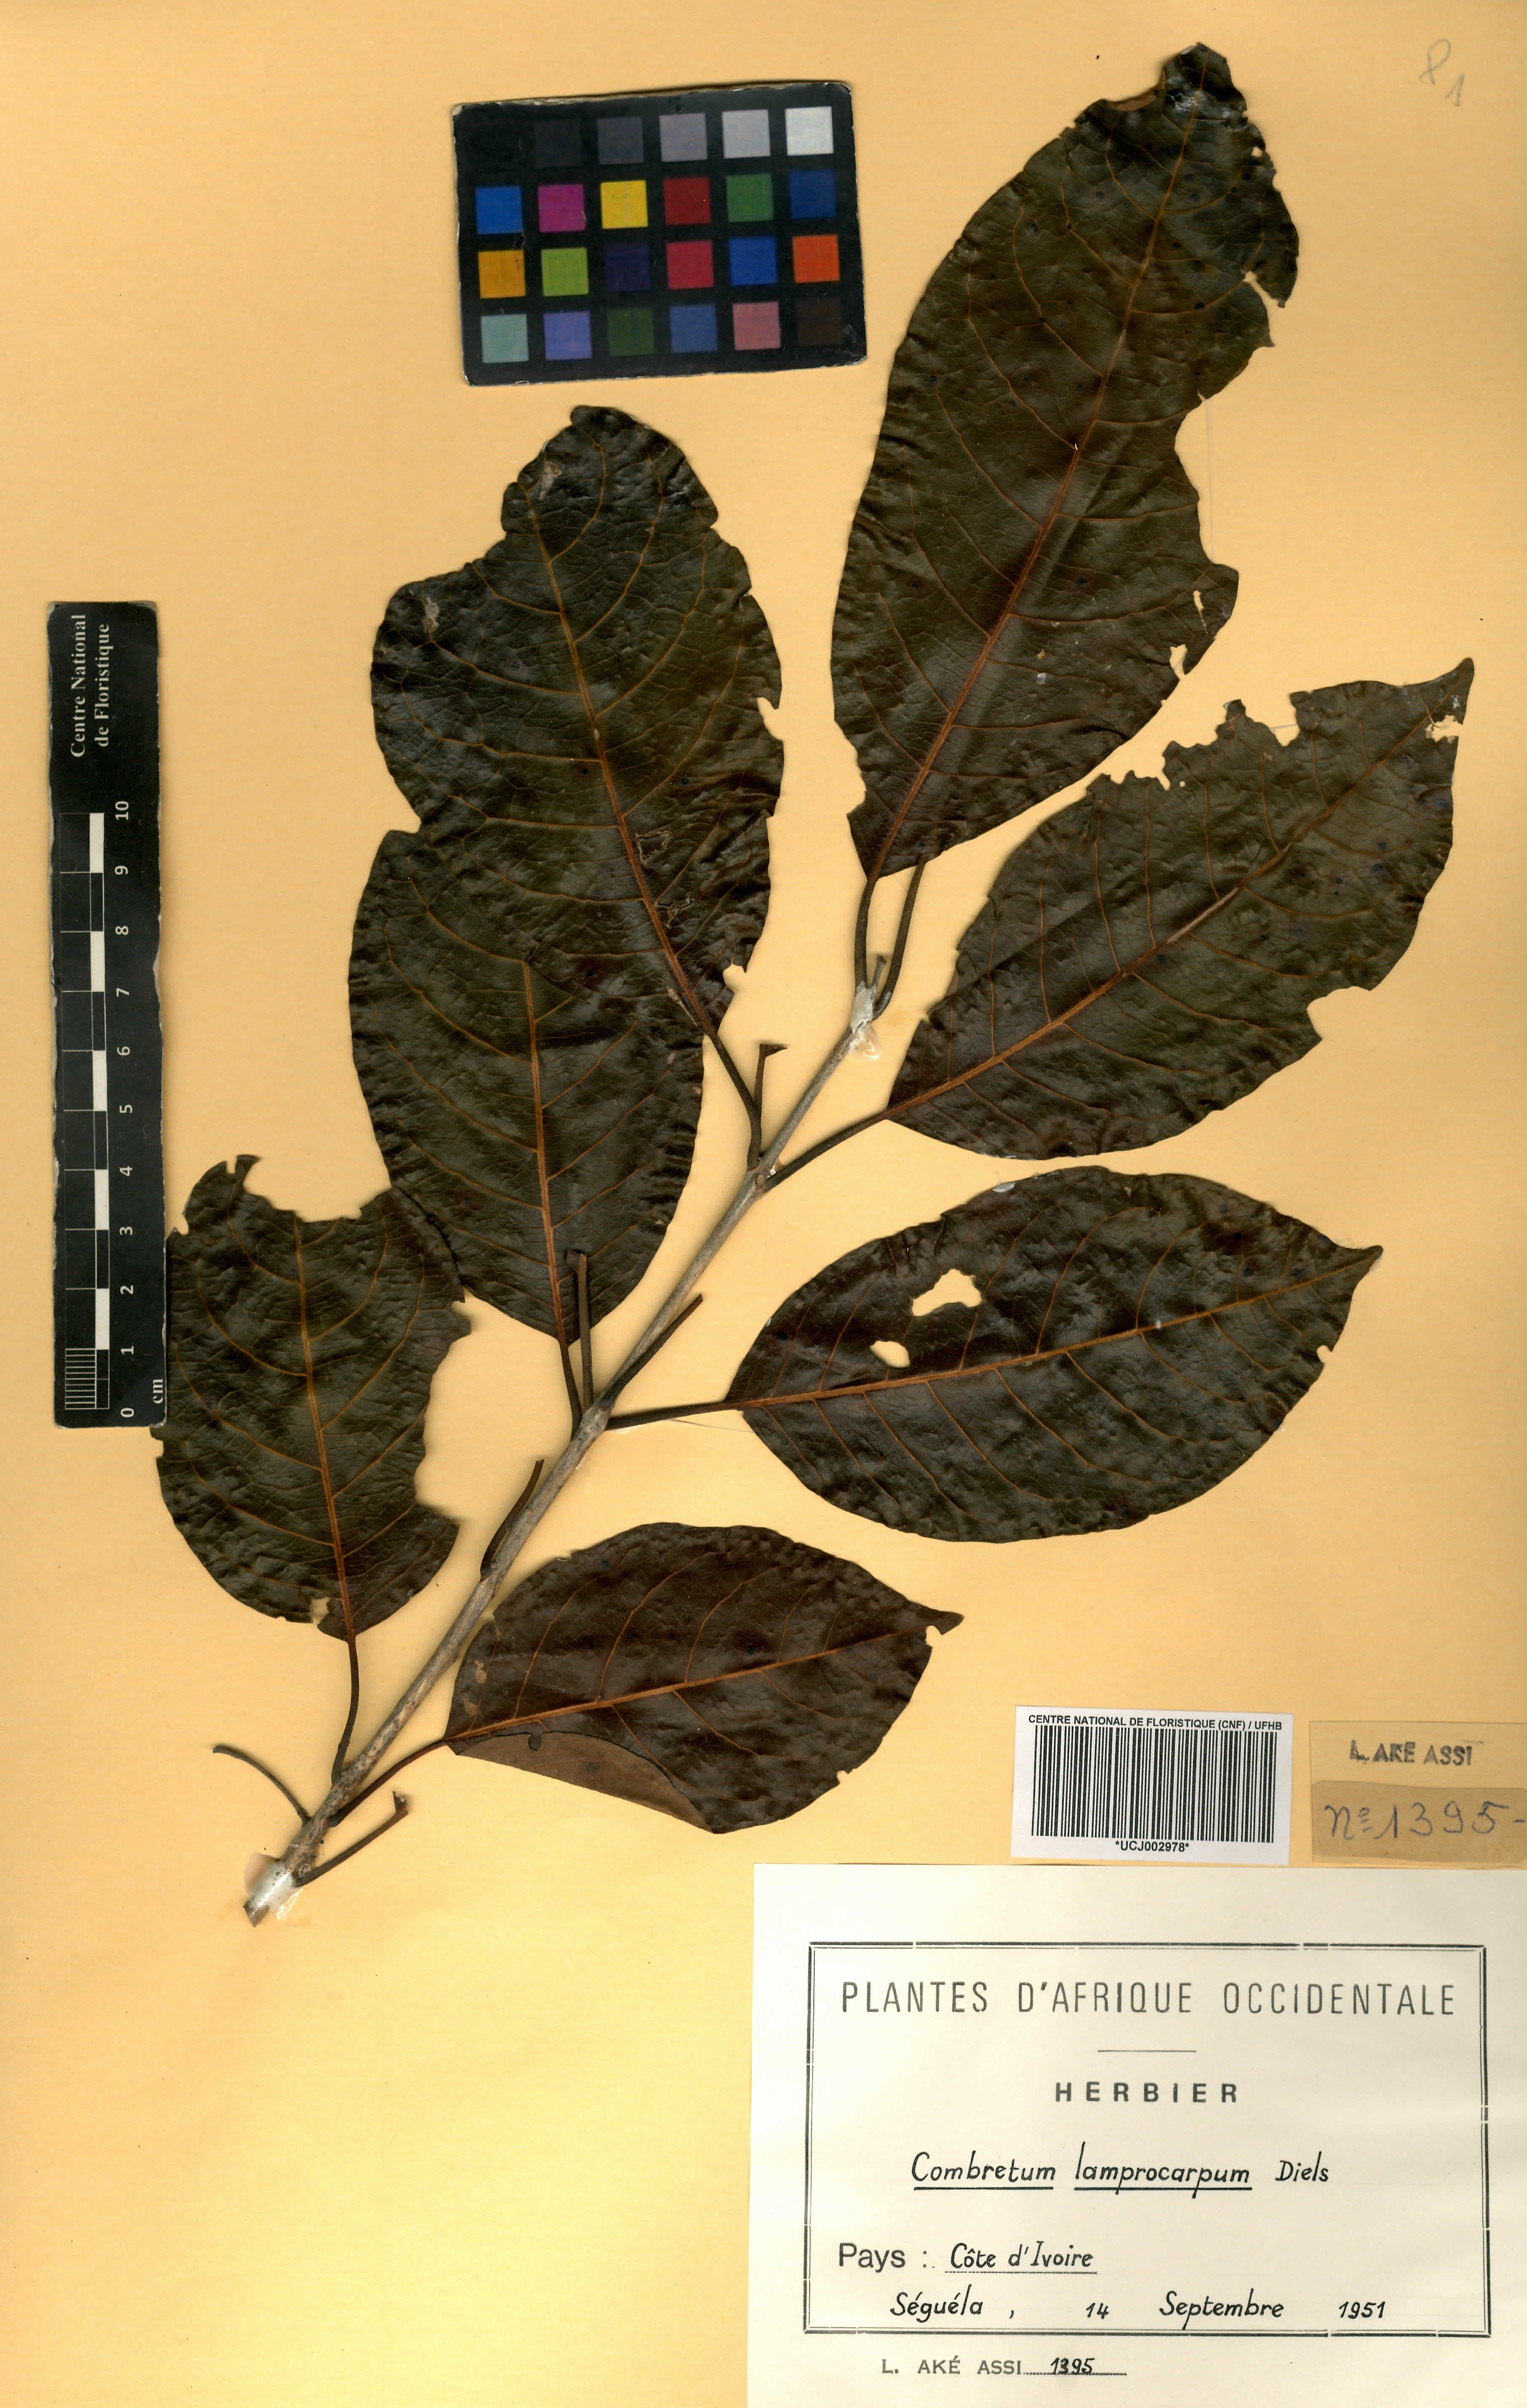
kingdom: Plantae
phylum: Tracheophyta
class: Magnoliopsida
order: Myrtales
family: Combretaceae
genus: Combretum
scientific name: Combretum collinum
